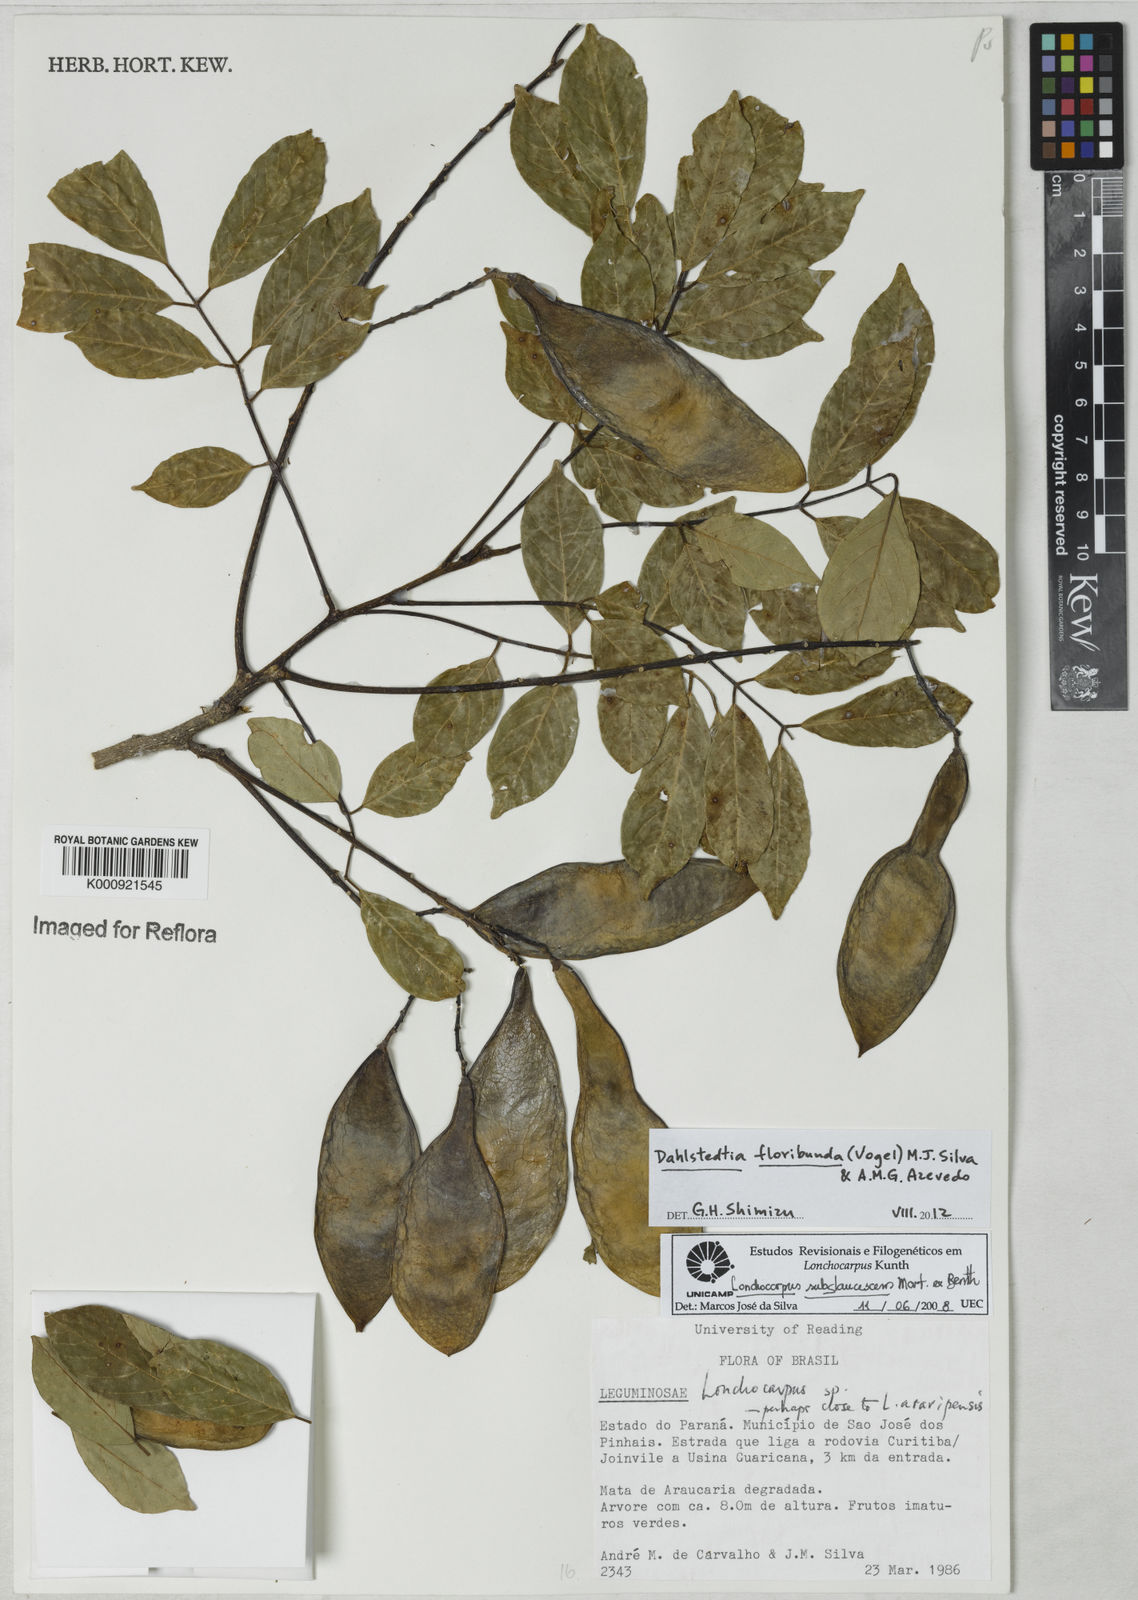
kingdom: Plantae
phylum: Tracheophyta
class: Magnoliopsida
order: Fabales
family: Fabaceae
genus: Dahlstedtia
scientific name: Dahlstedtia floribunda
